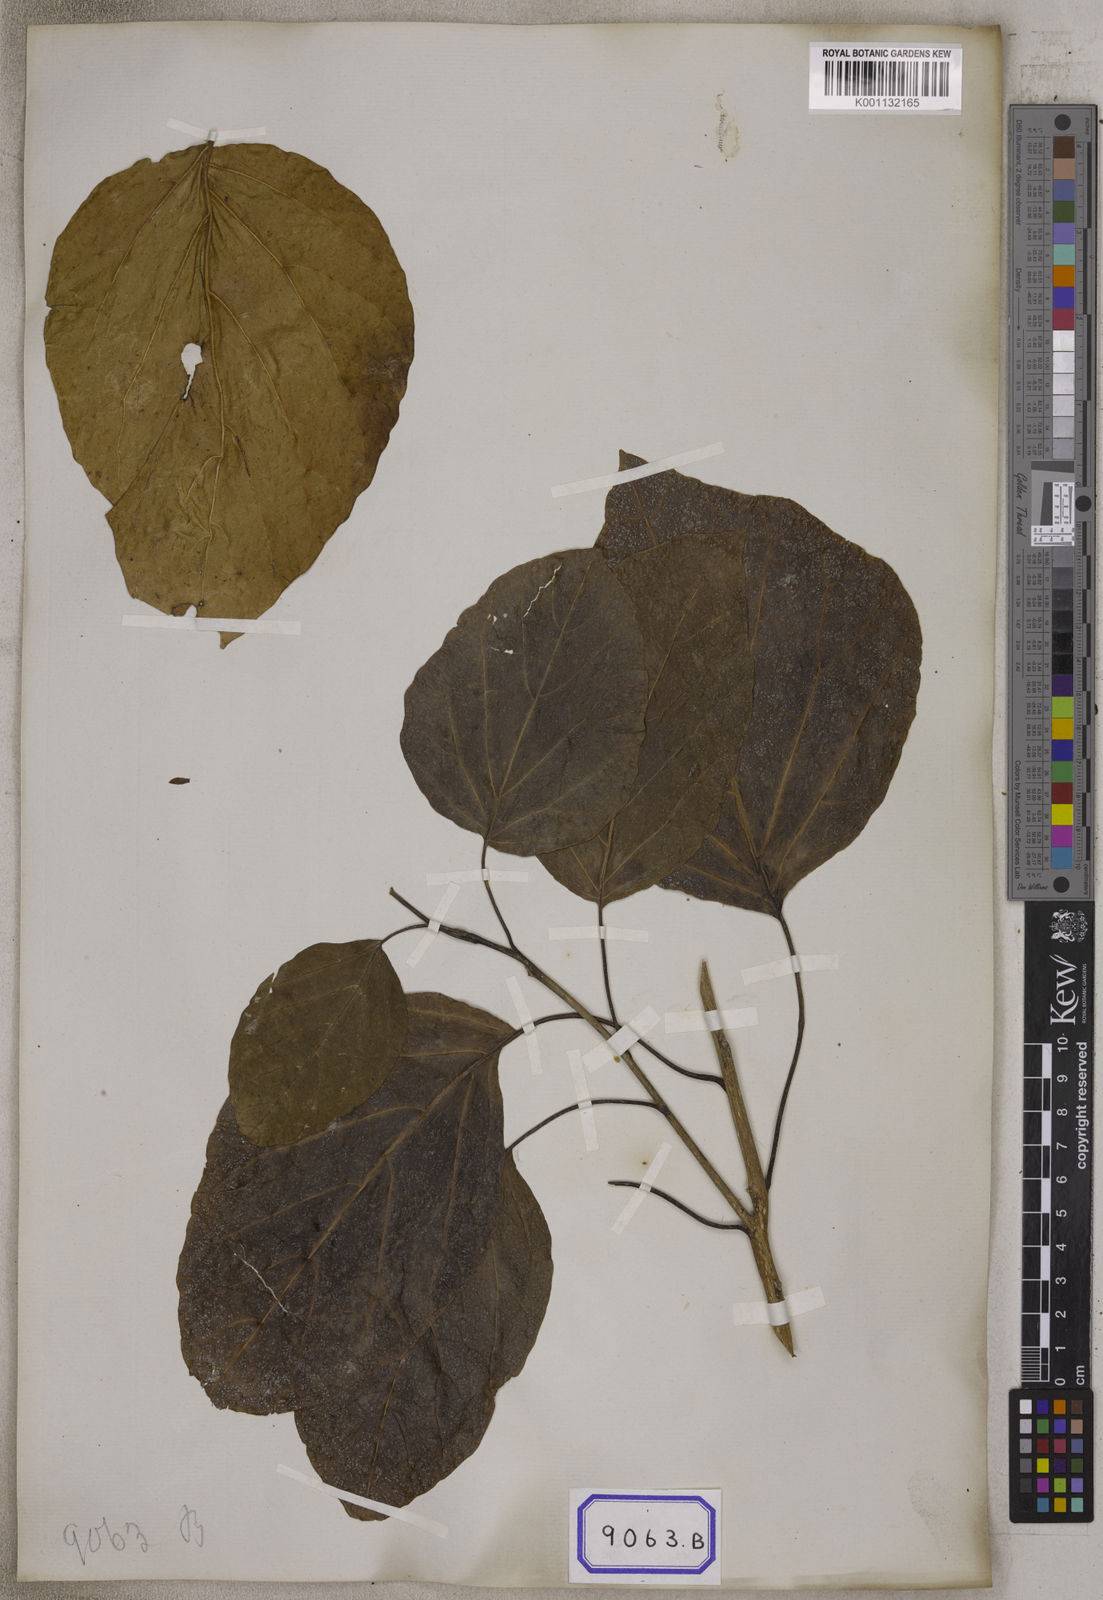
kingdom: Plantae
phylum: Tracheophyta
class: Magnoliopsida
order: Boraginales
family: Cordiaceae
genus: Cordia
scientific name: Cordia subcordata
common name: Mareer
